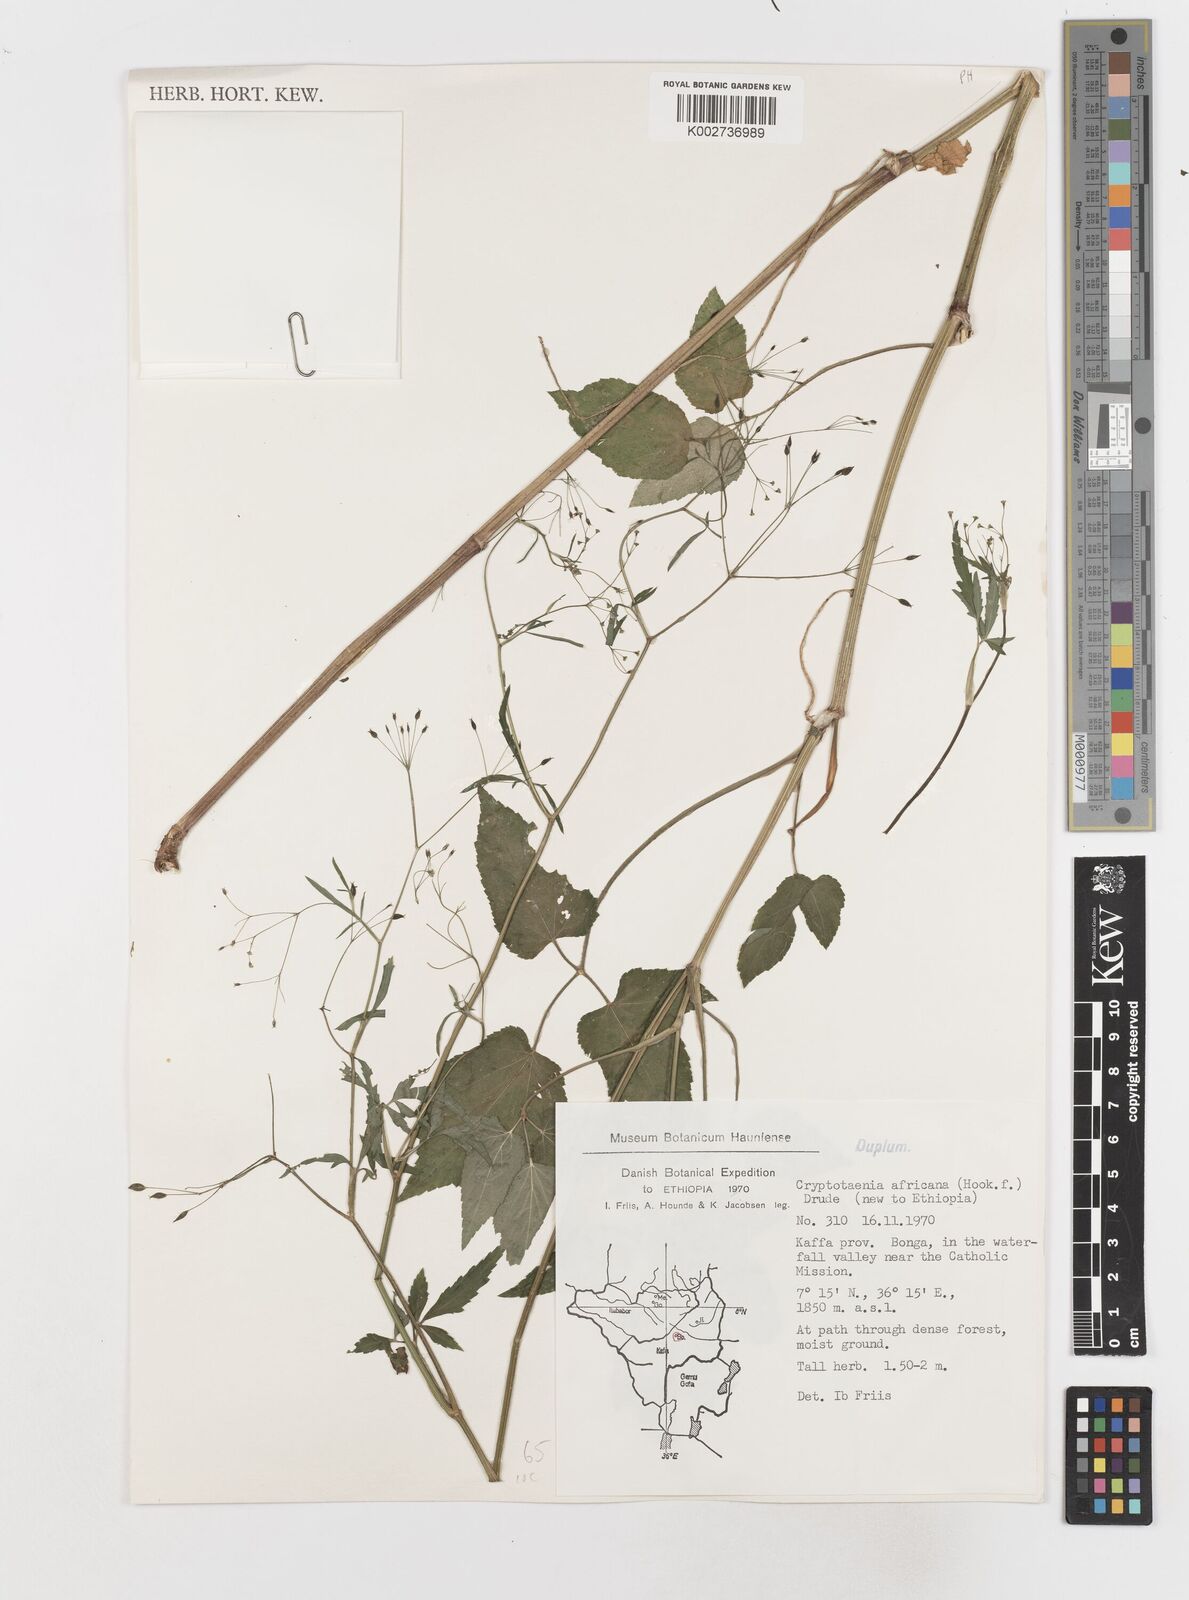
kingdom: Plantae
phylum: Tracheophyta
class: Magnoliopsida
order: Apiales
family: Apiaceae
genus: Cryptotaenia
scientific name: Cryptotaenia africana
